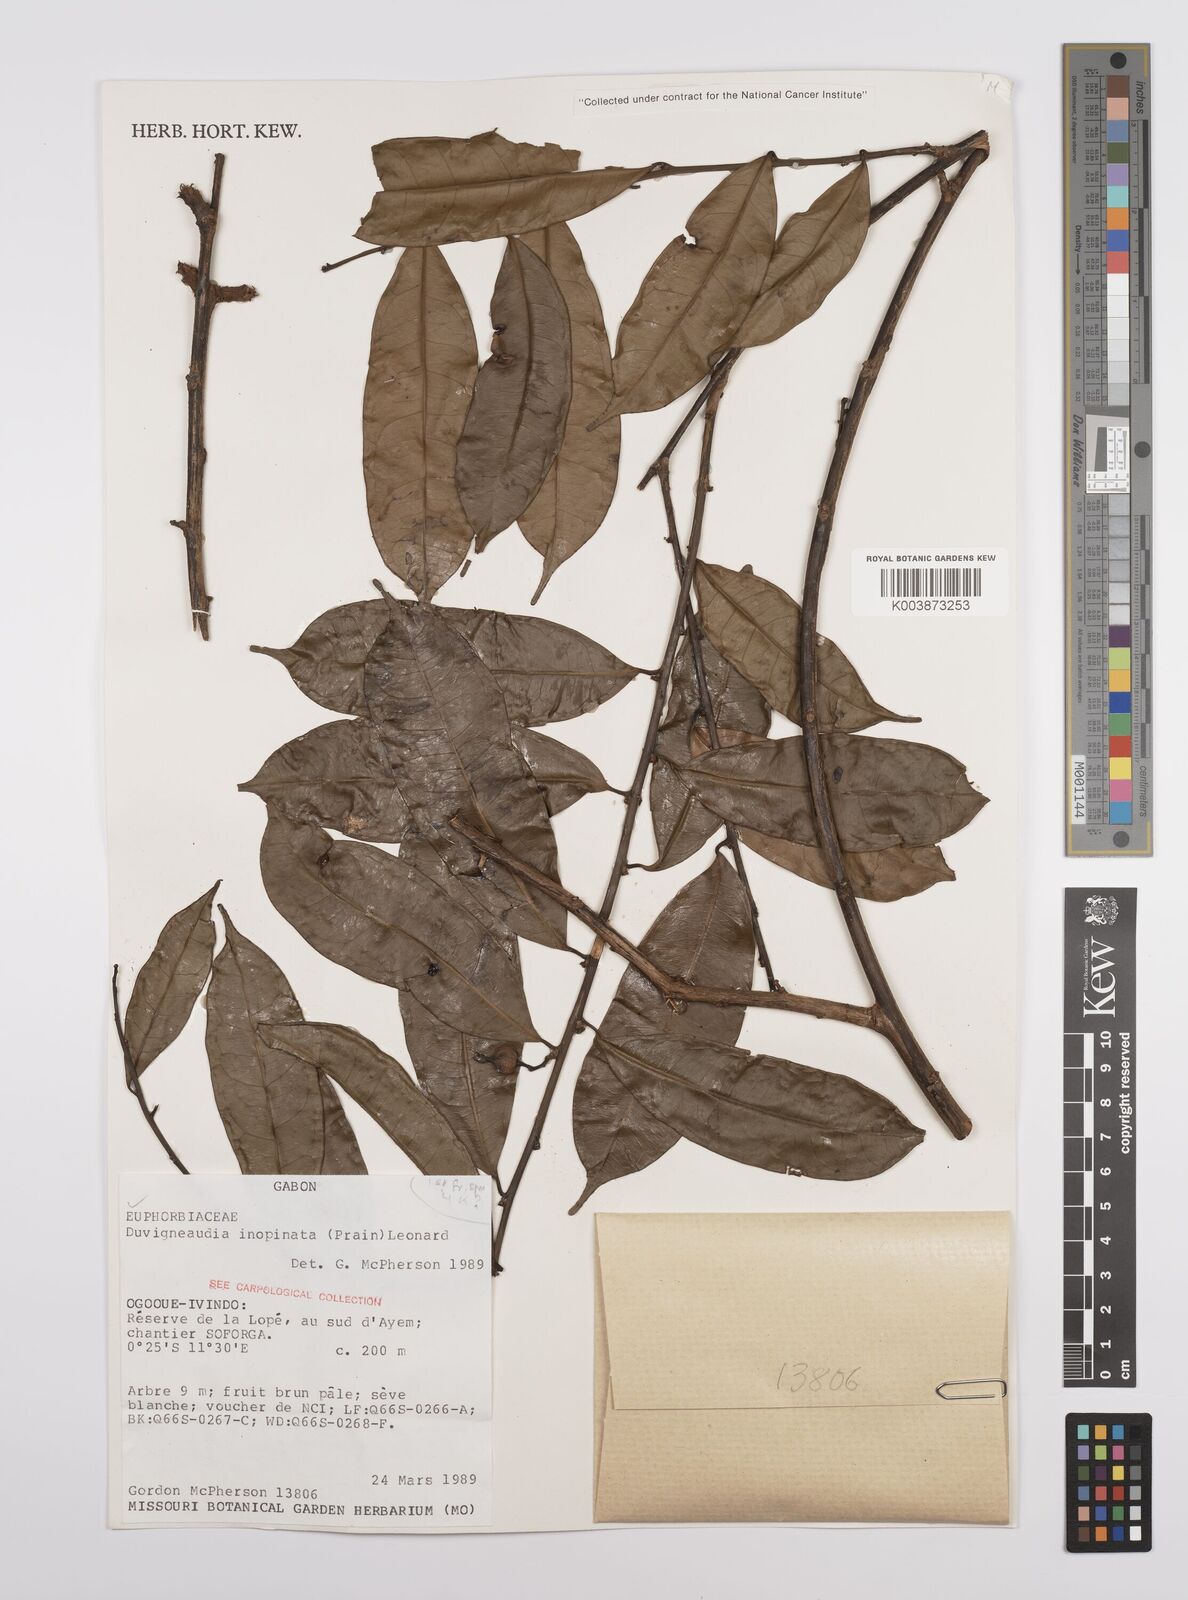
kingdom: Plantae
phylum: Tracheophyta
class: Magnoliopsida
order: Malpighiales
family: Euphorbiaceae
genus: Gymnanthes
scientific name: Gymnanthes inopinata
